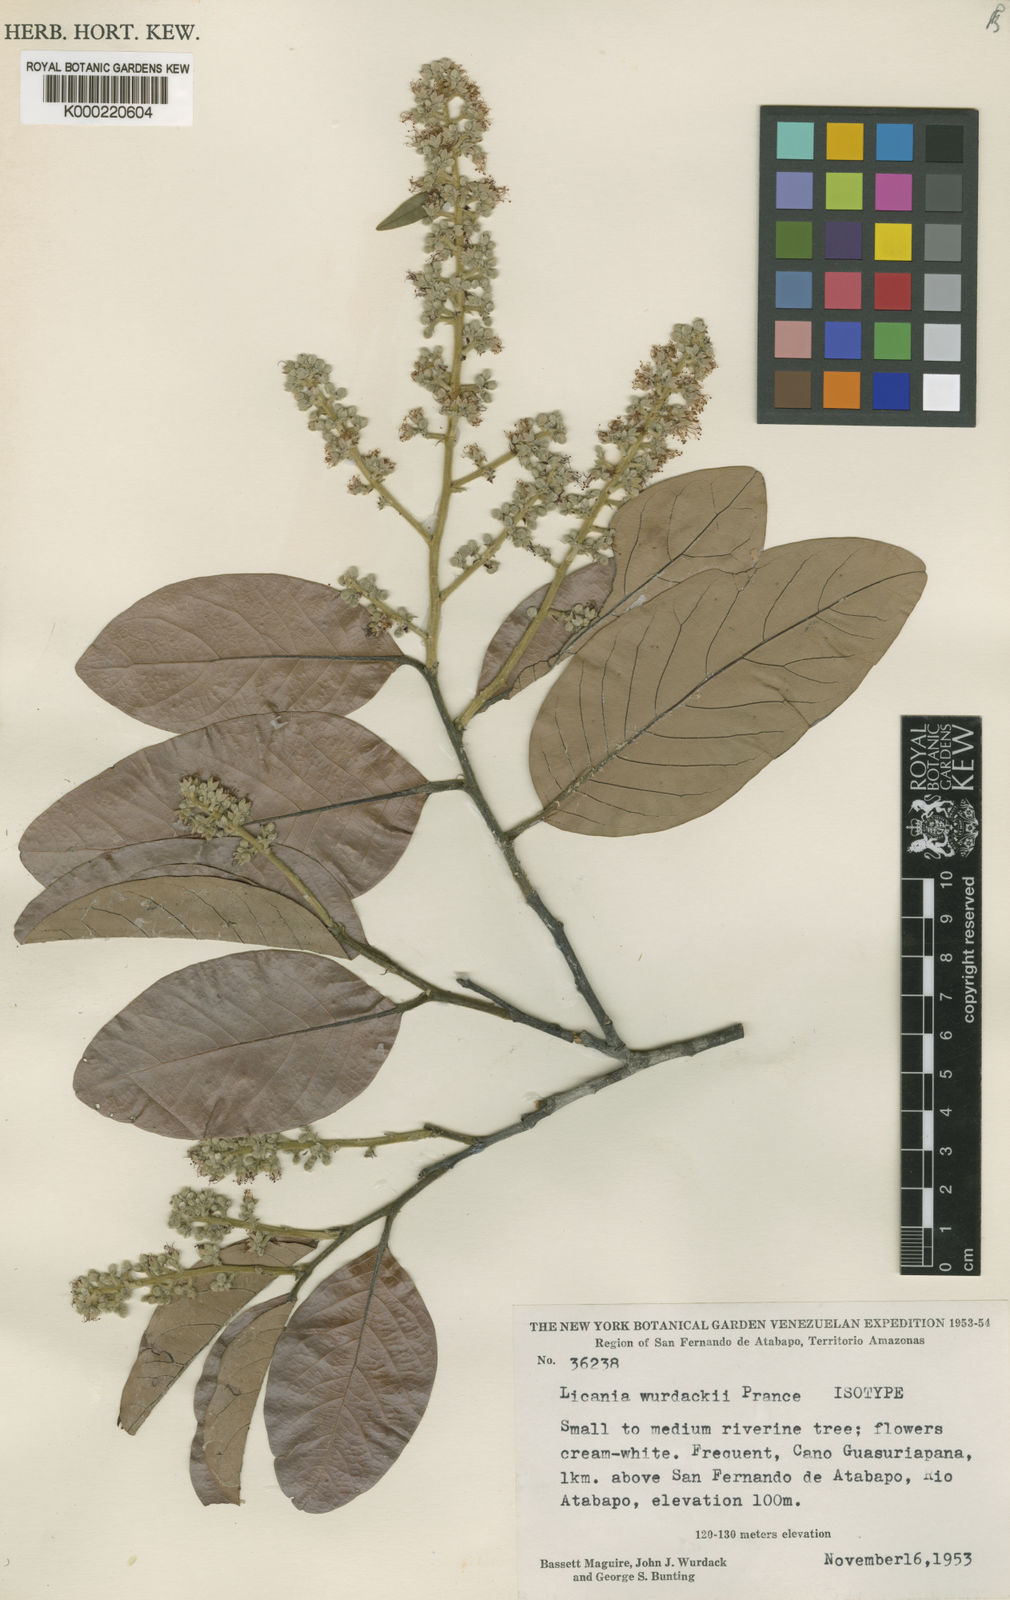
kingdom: Plantae
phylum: Tracheophyta
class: Magnoliopsida
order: Malpighiales
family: Chrysobalanaceae
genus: Leptobalanus
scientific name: Leptobalanus wurdackii
